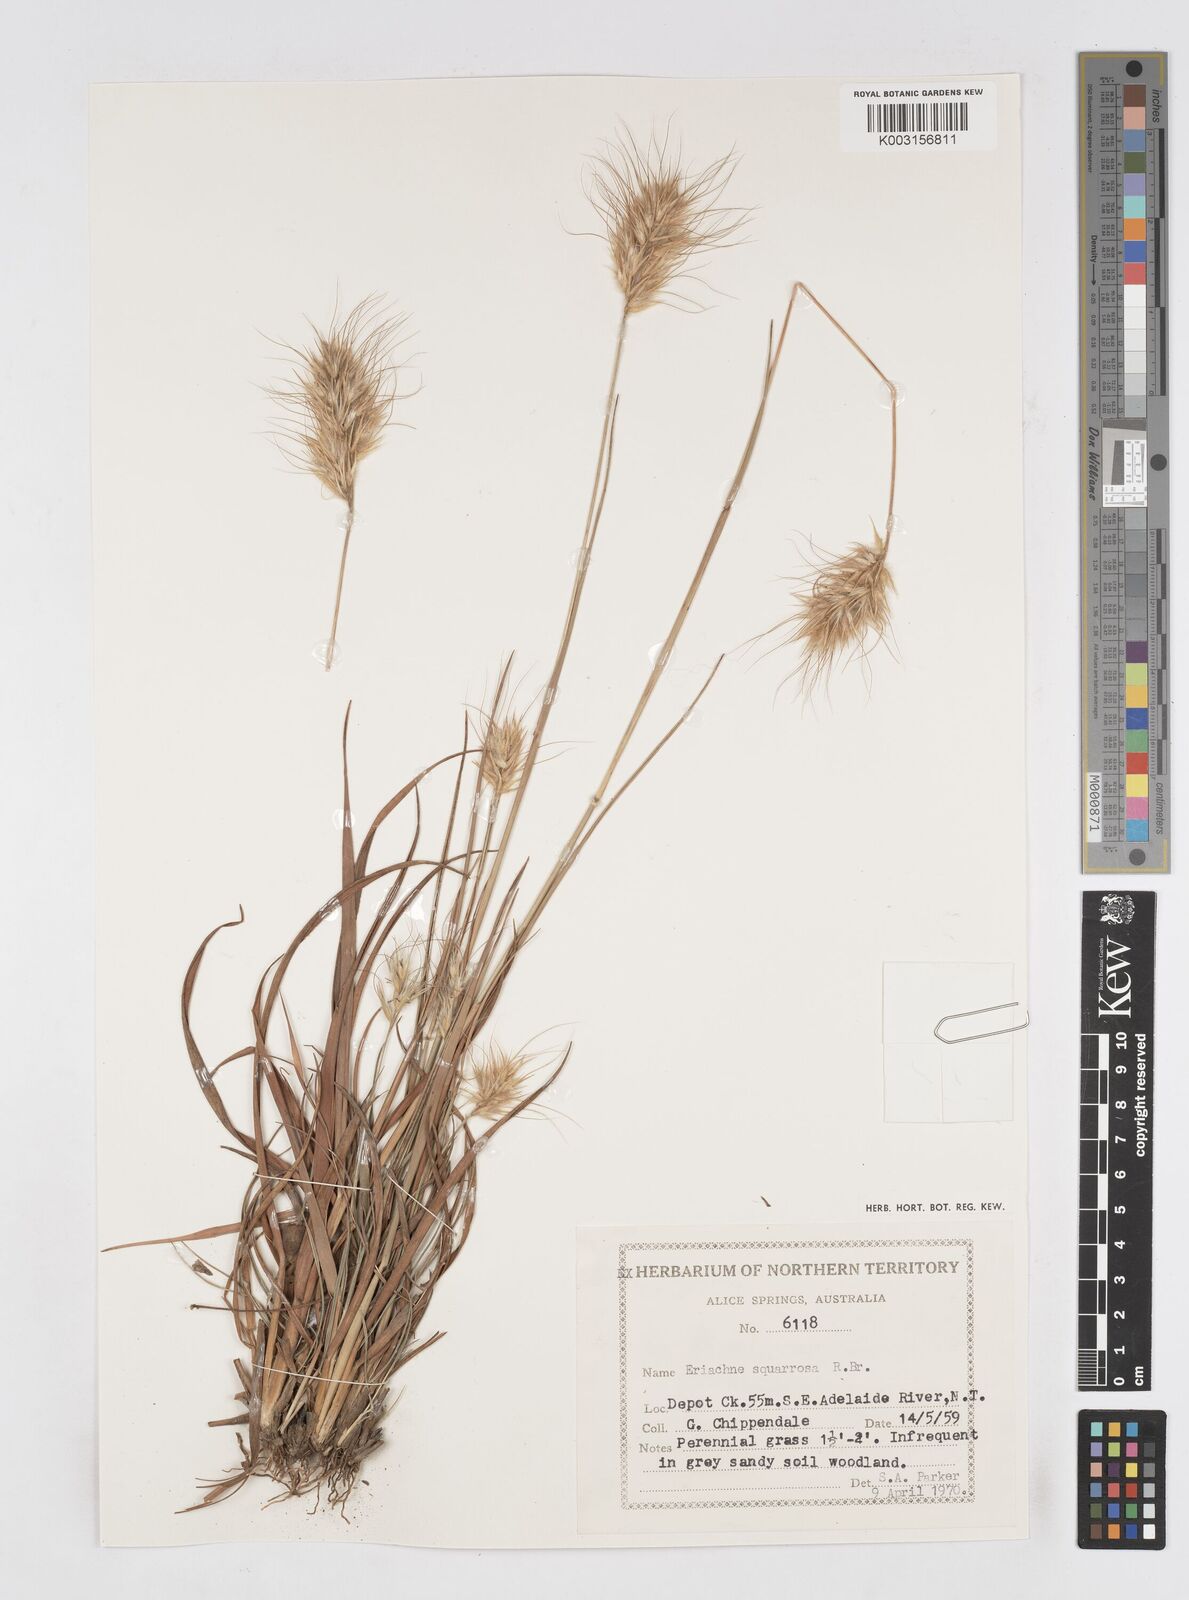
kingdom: Plantae
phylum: Tracheophyta
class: Liliopsida
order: Poales
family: Poaceae
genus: Eriachne
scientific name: Eriachne squarrosa
